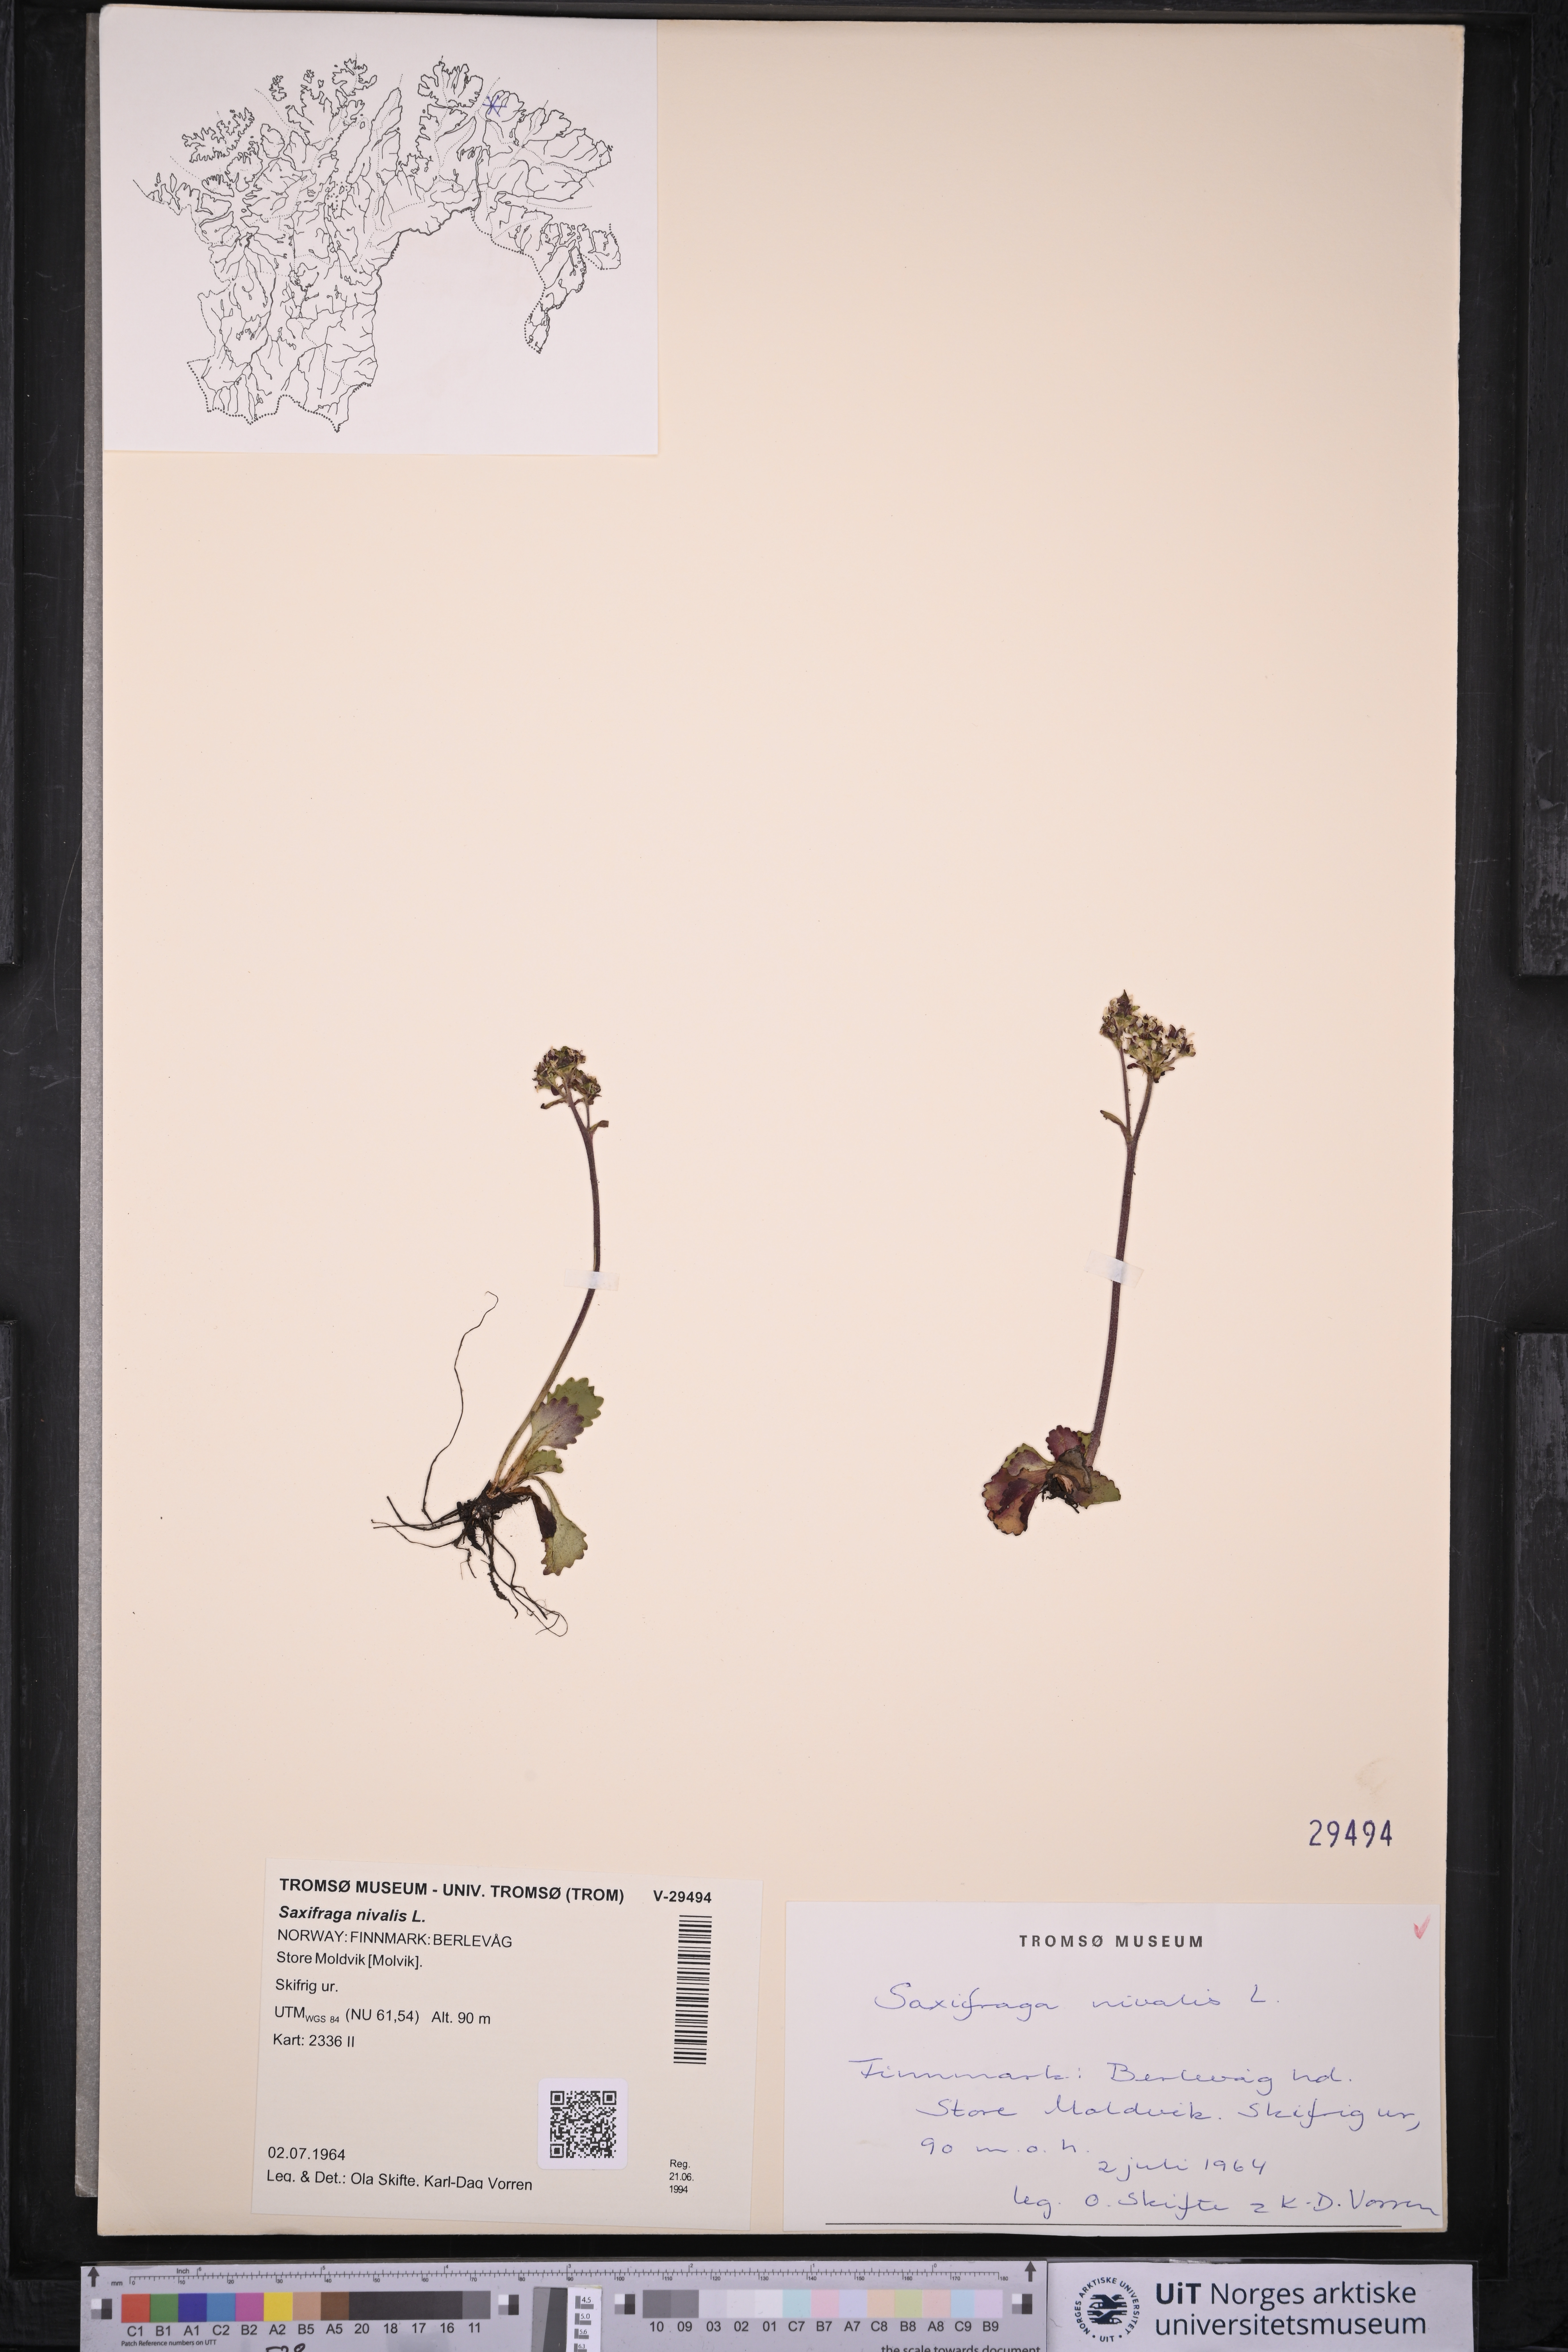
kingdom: Plantae
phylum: Tracheophyta
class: Magnoliopsida
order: Saxifragales
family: Saxifragaceae
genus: Micranthes
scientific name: Micranthes nivalis
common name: Alpine saxifrage
